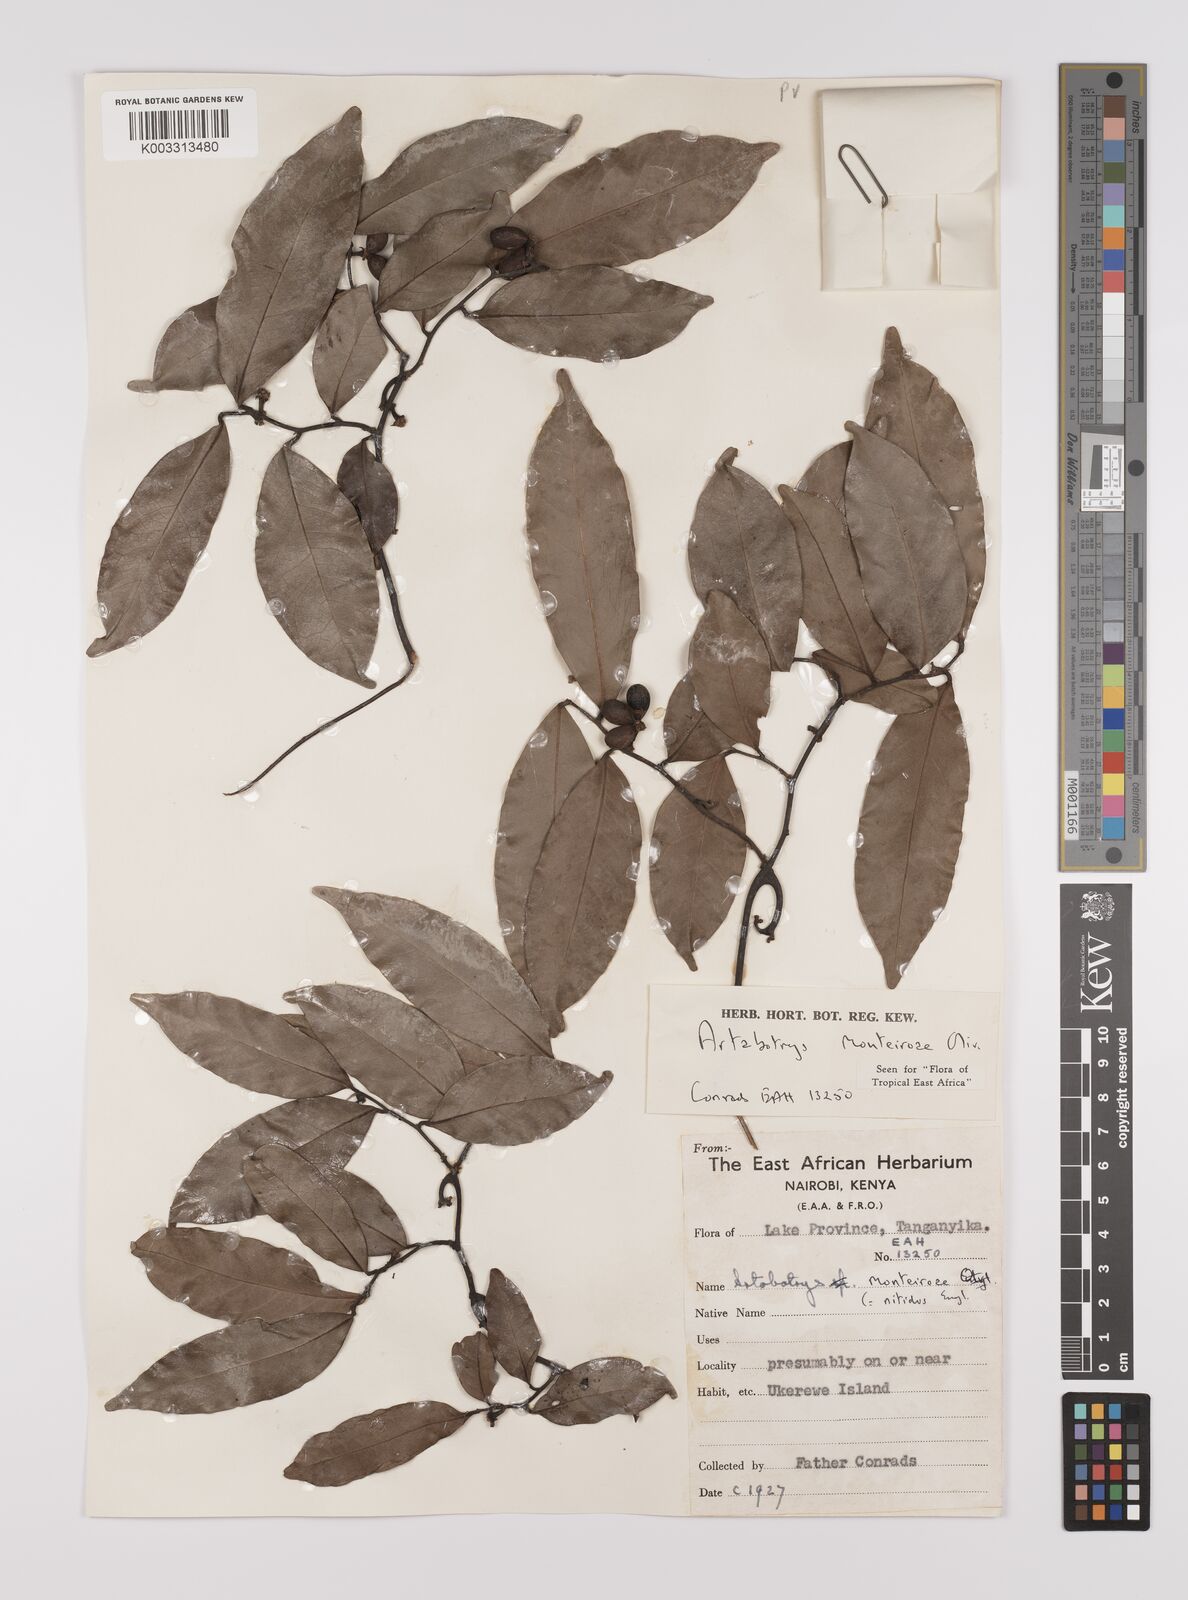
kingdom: Plantae
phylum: Tracheophyta
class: Magnoliopsida
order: Magnoliales
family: Annonaceae
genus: Artabotrys
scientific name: Artabotrys monteiroae
